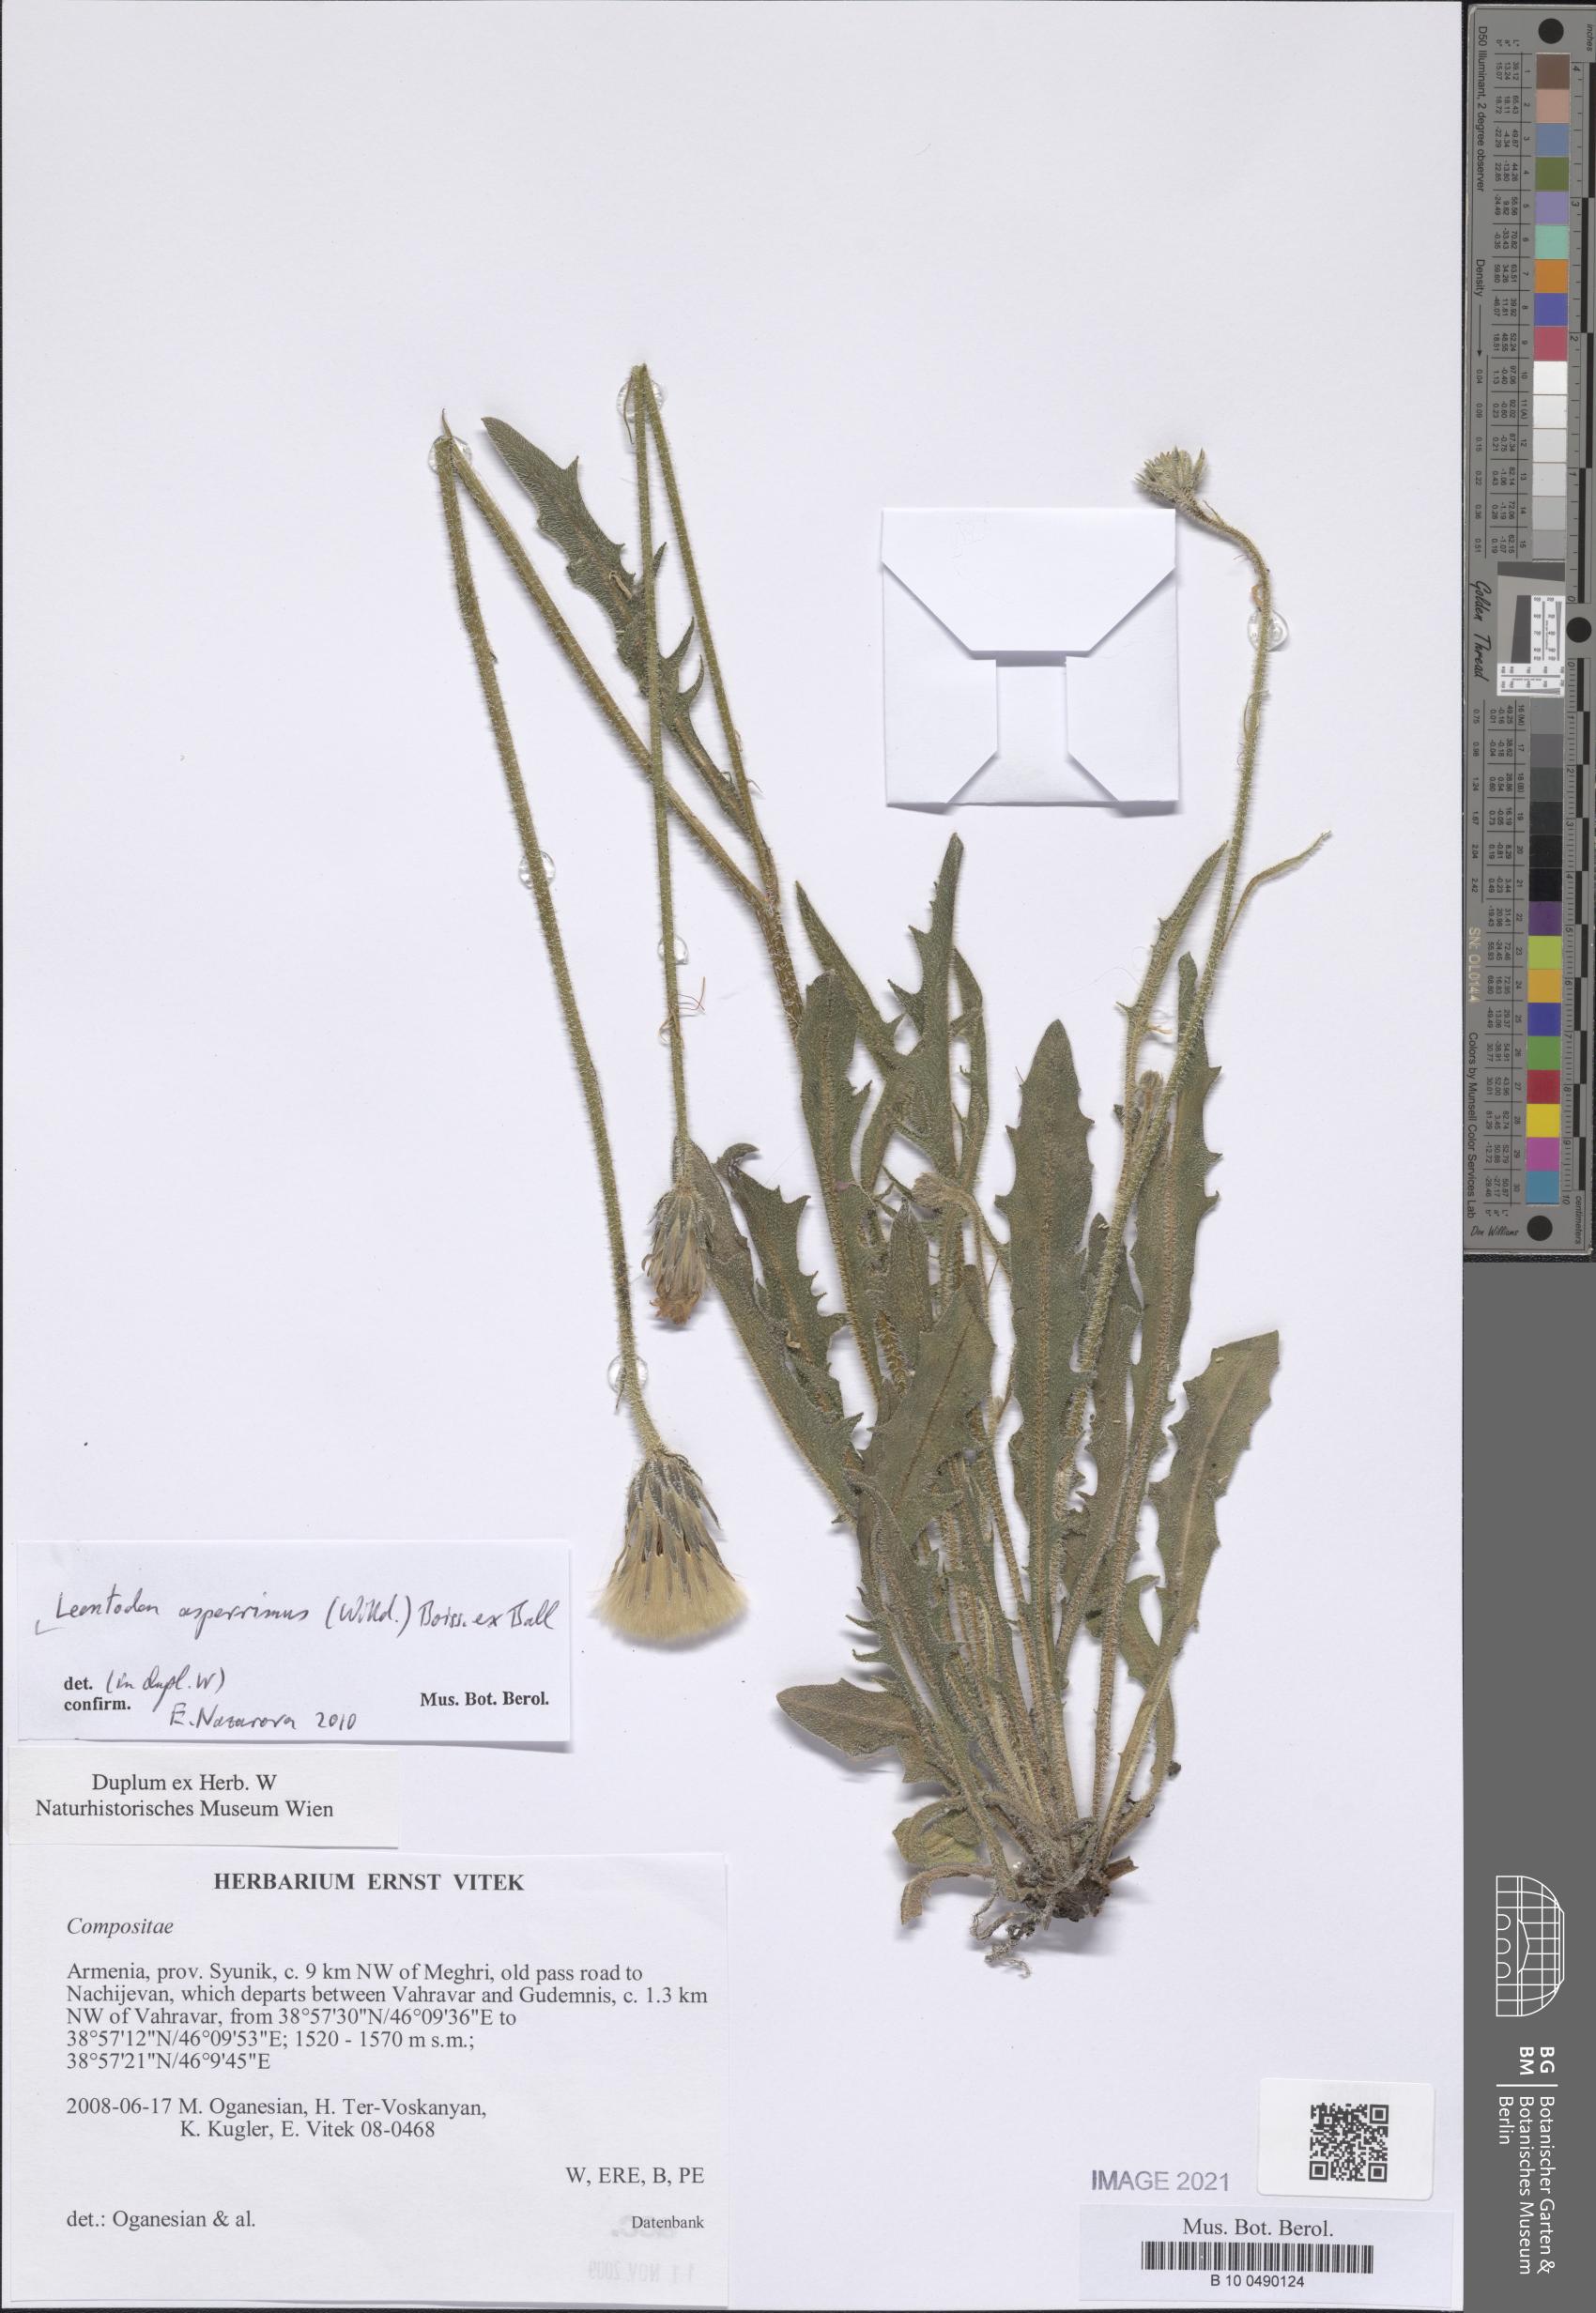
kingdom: Plantae
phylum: Tracheophyta
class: Magnoliopsida
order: Asterales
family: Asteraceae
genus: Leontodon
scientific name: Leontodon asperrimus
